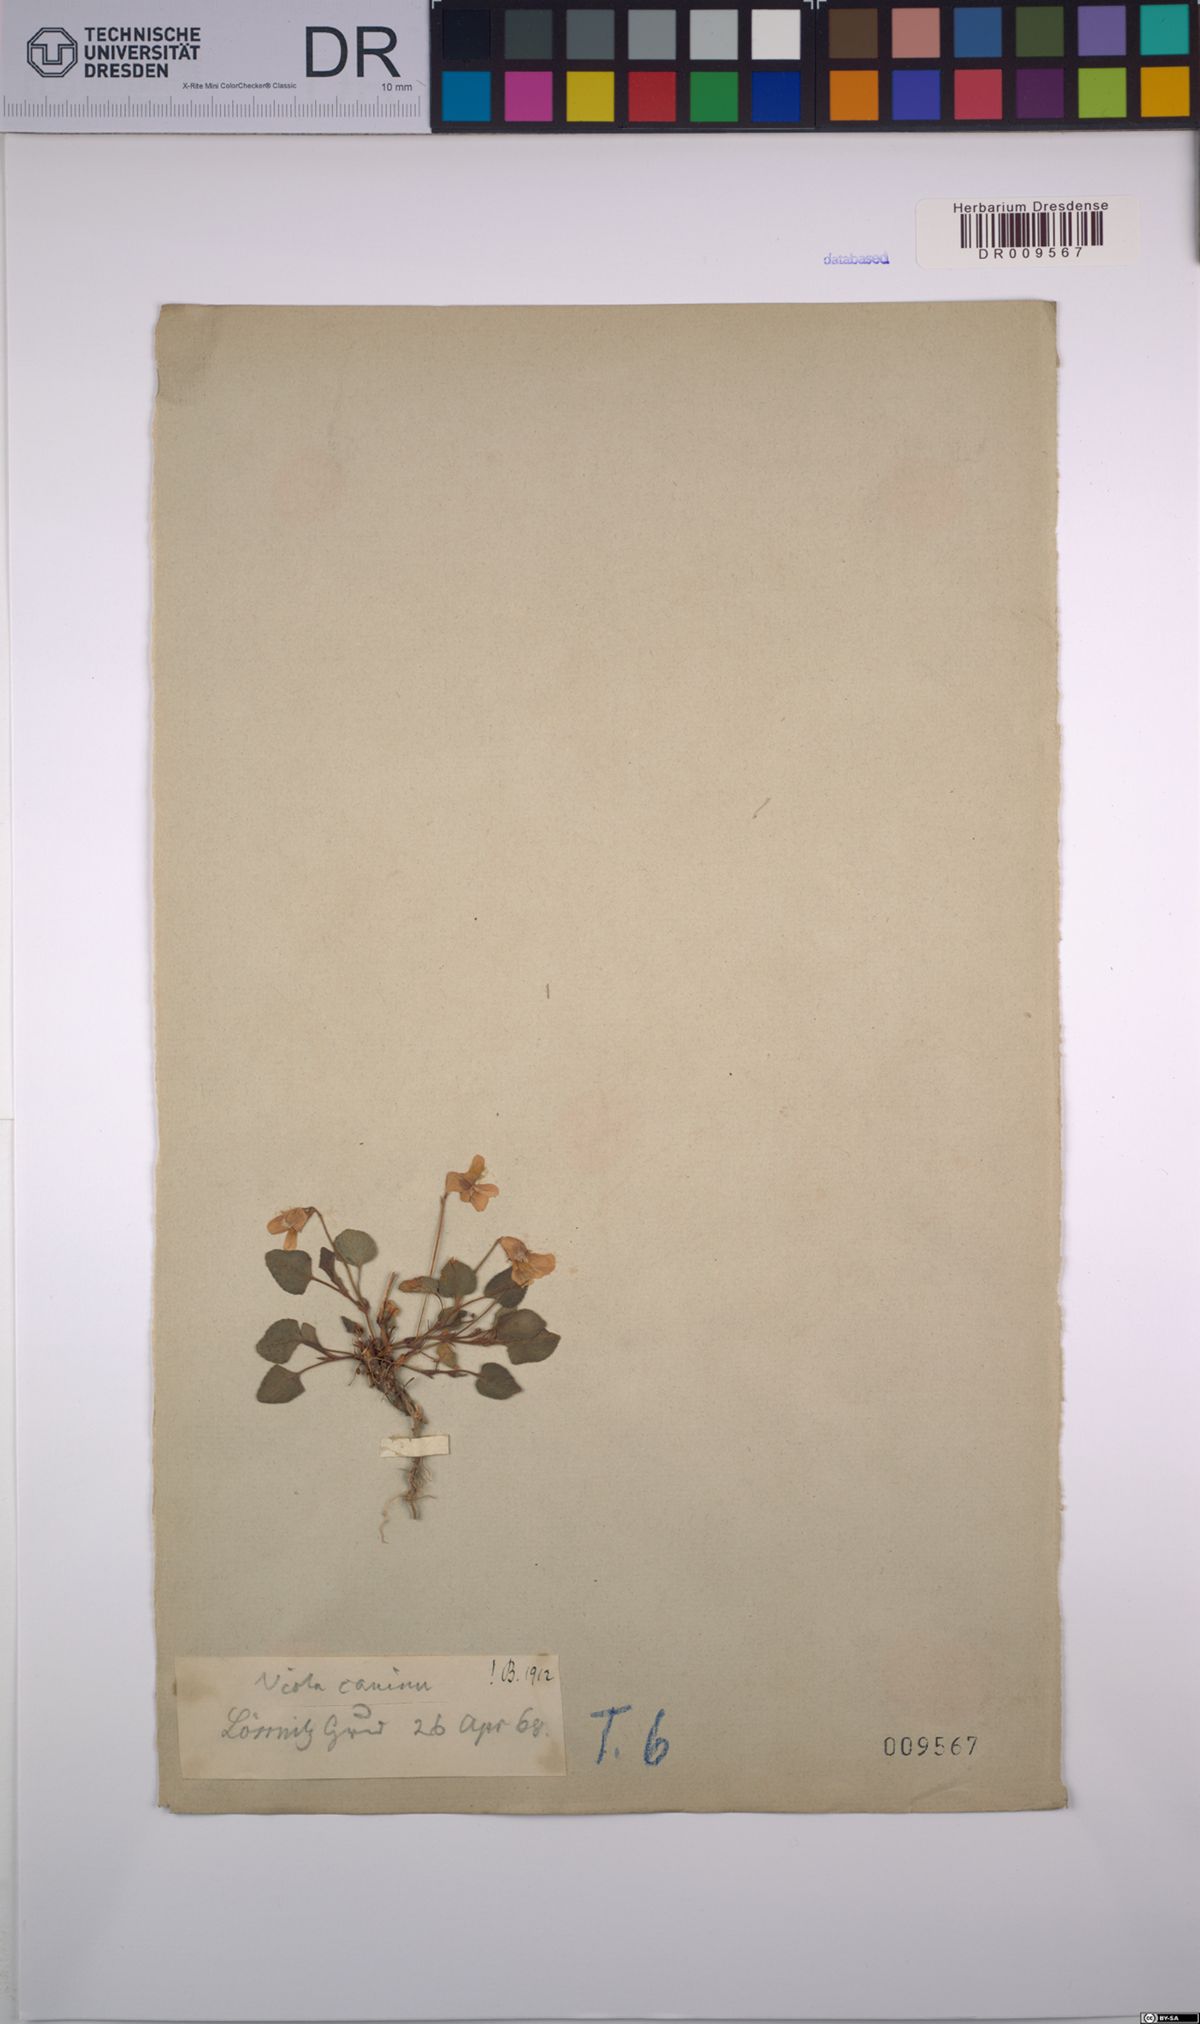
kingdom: Plantae
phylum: Tracheophyta
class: Magnoliopsida
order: Malpighiales
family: Violaceae
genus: Viola
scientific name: Viola canina
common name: Heath dog-violet
